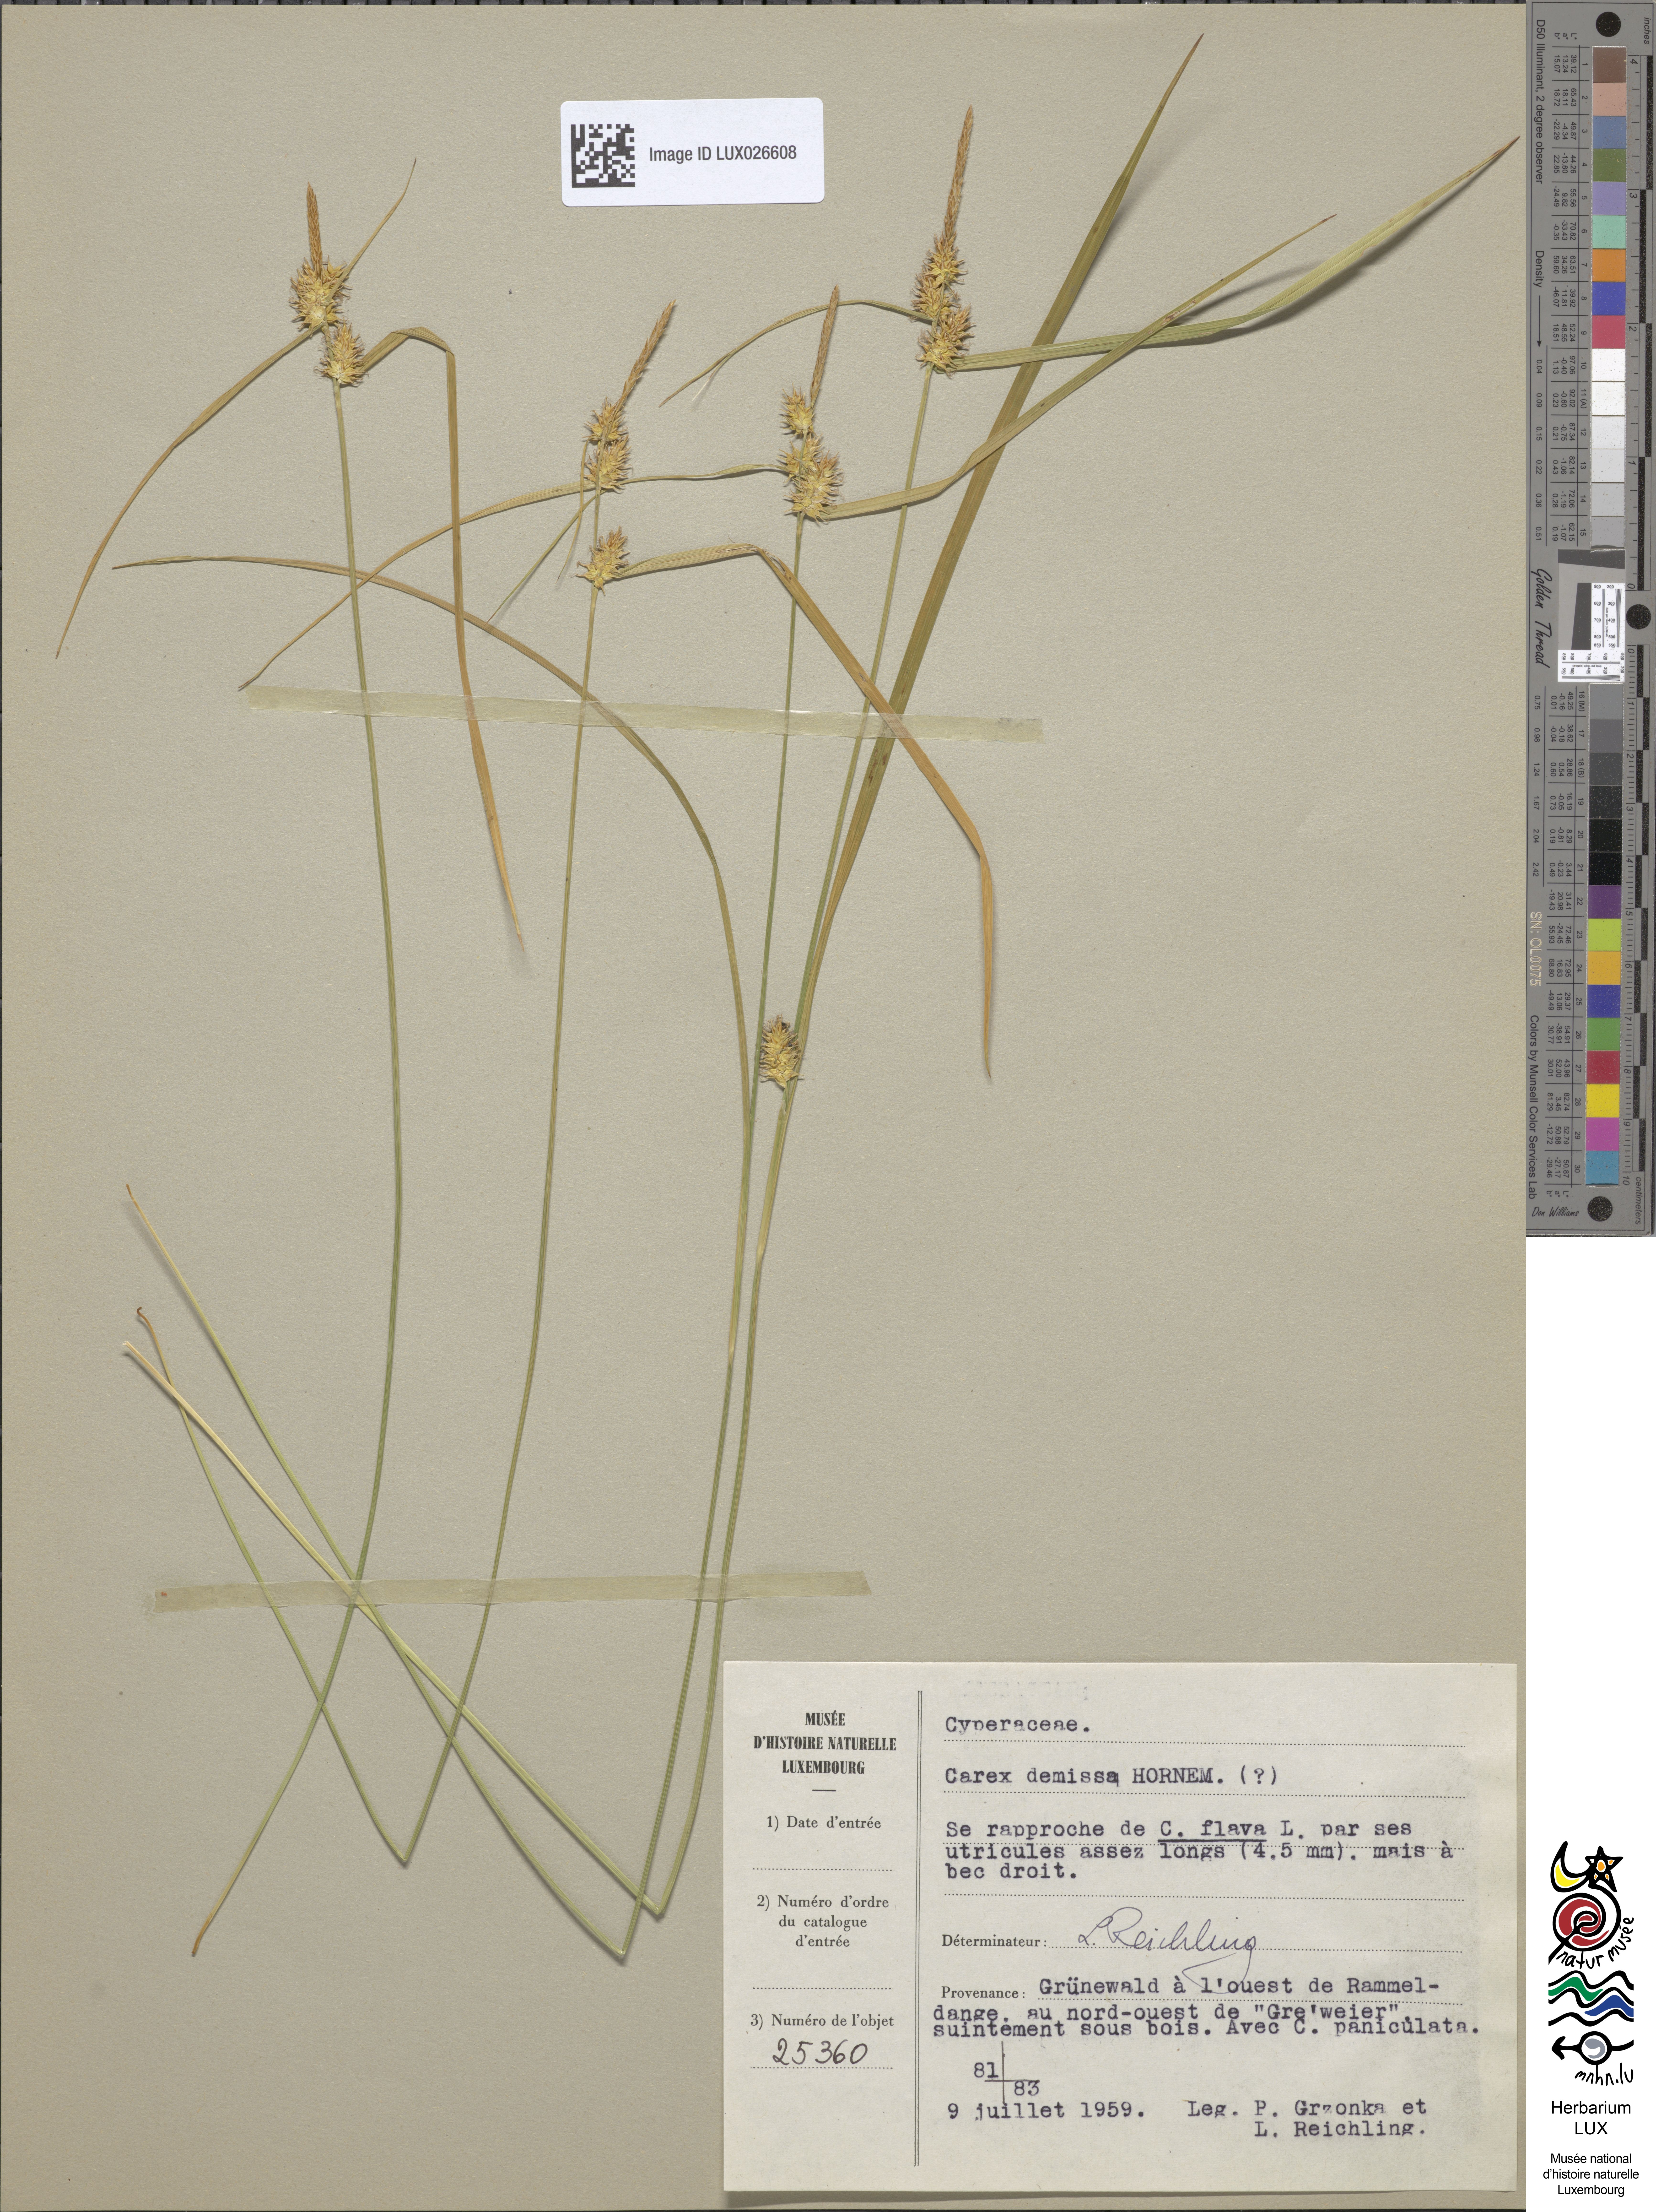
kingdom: Plantae
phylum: Tracheophyta
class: Liliopsida
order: Poales
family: Cyperaceae
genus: Carex
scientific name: Carex flava
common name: Large yellow-sedge
